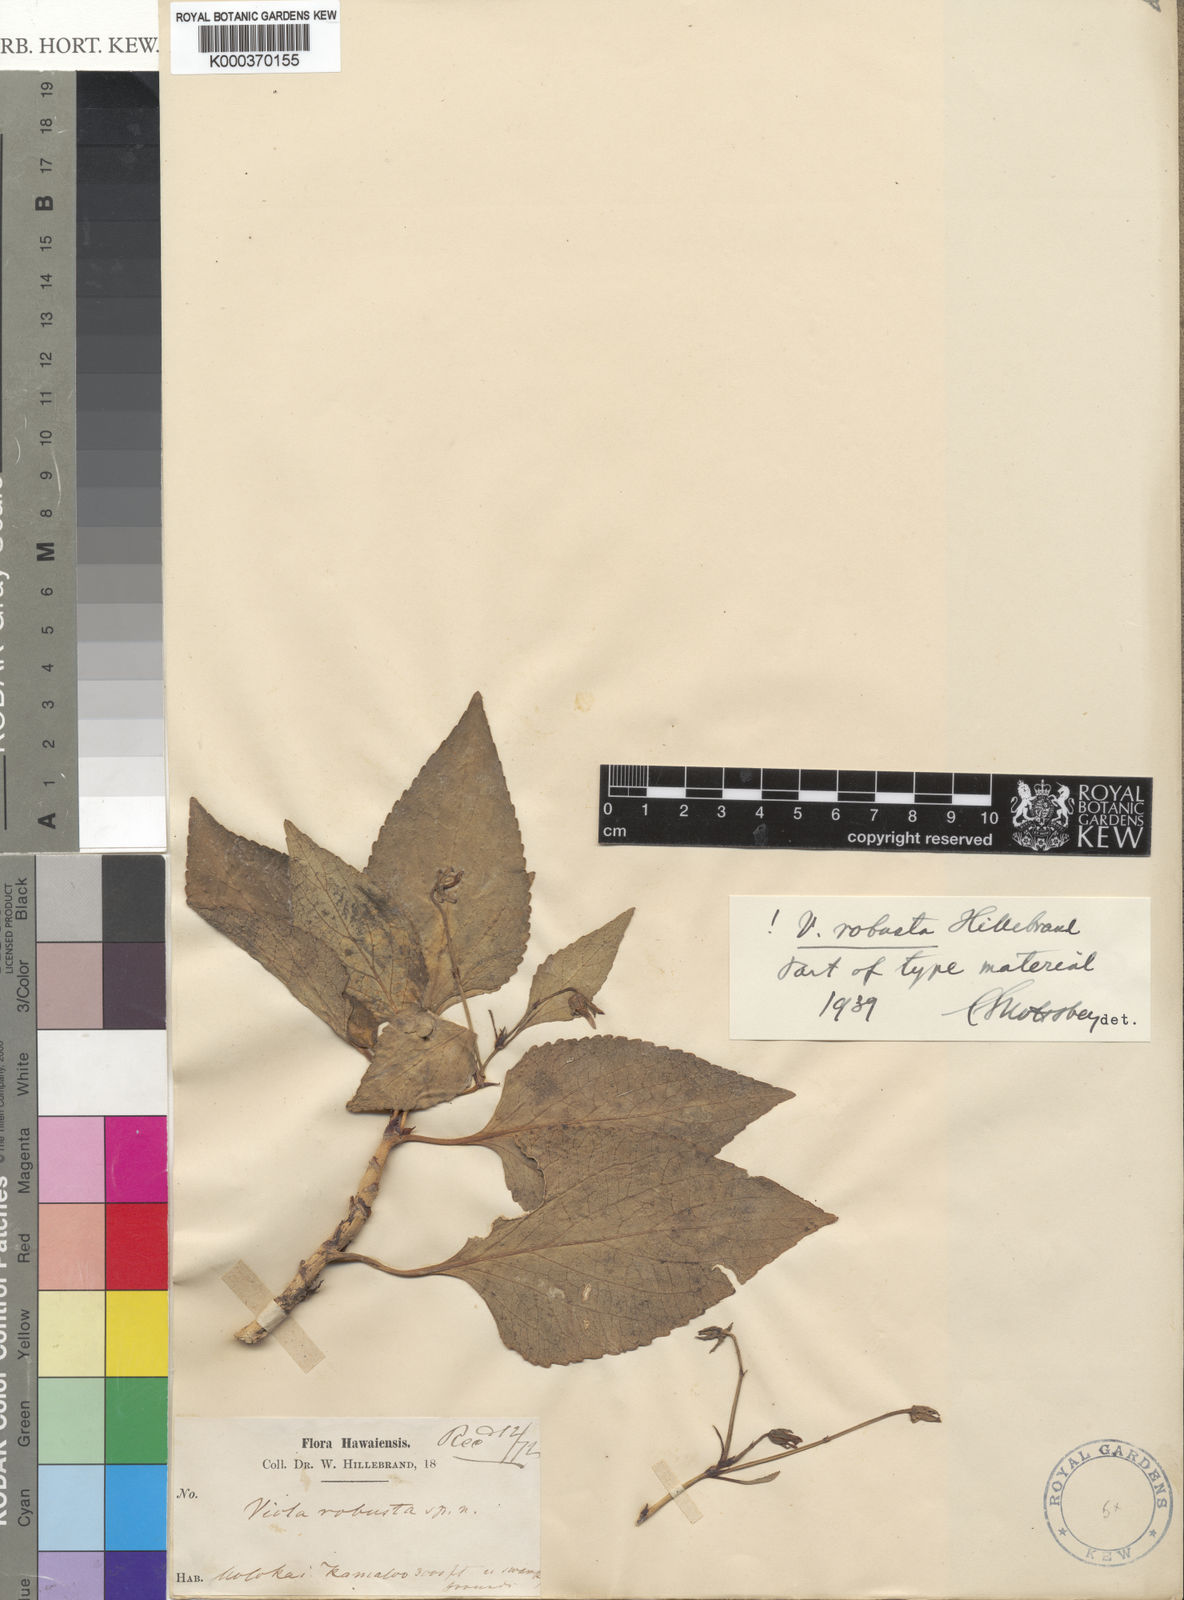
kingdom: Plantae
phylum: Tracheophyta
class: Magnoliopsida
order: Malpighiales
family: Violaceae
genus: Viola
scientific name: Viola chamissoniana
